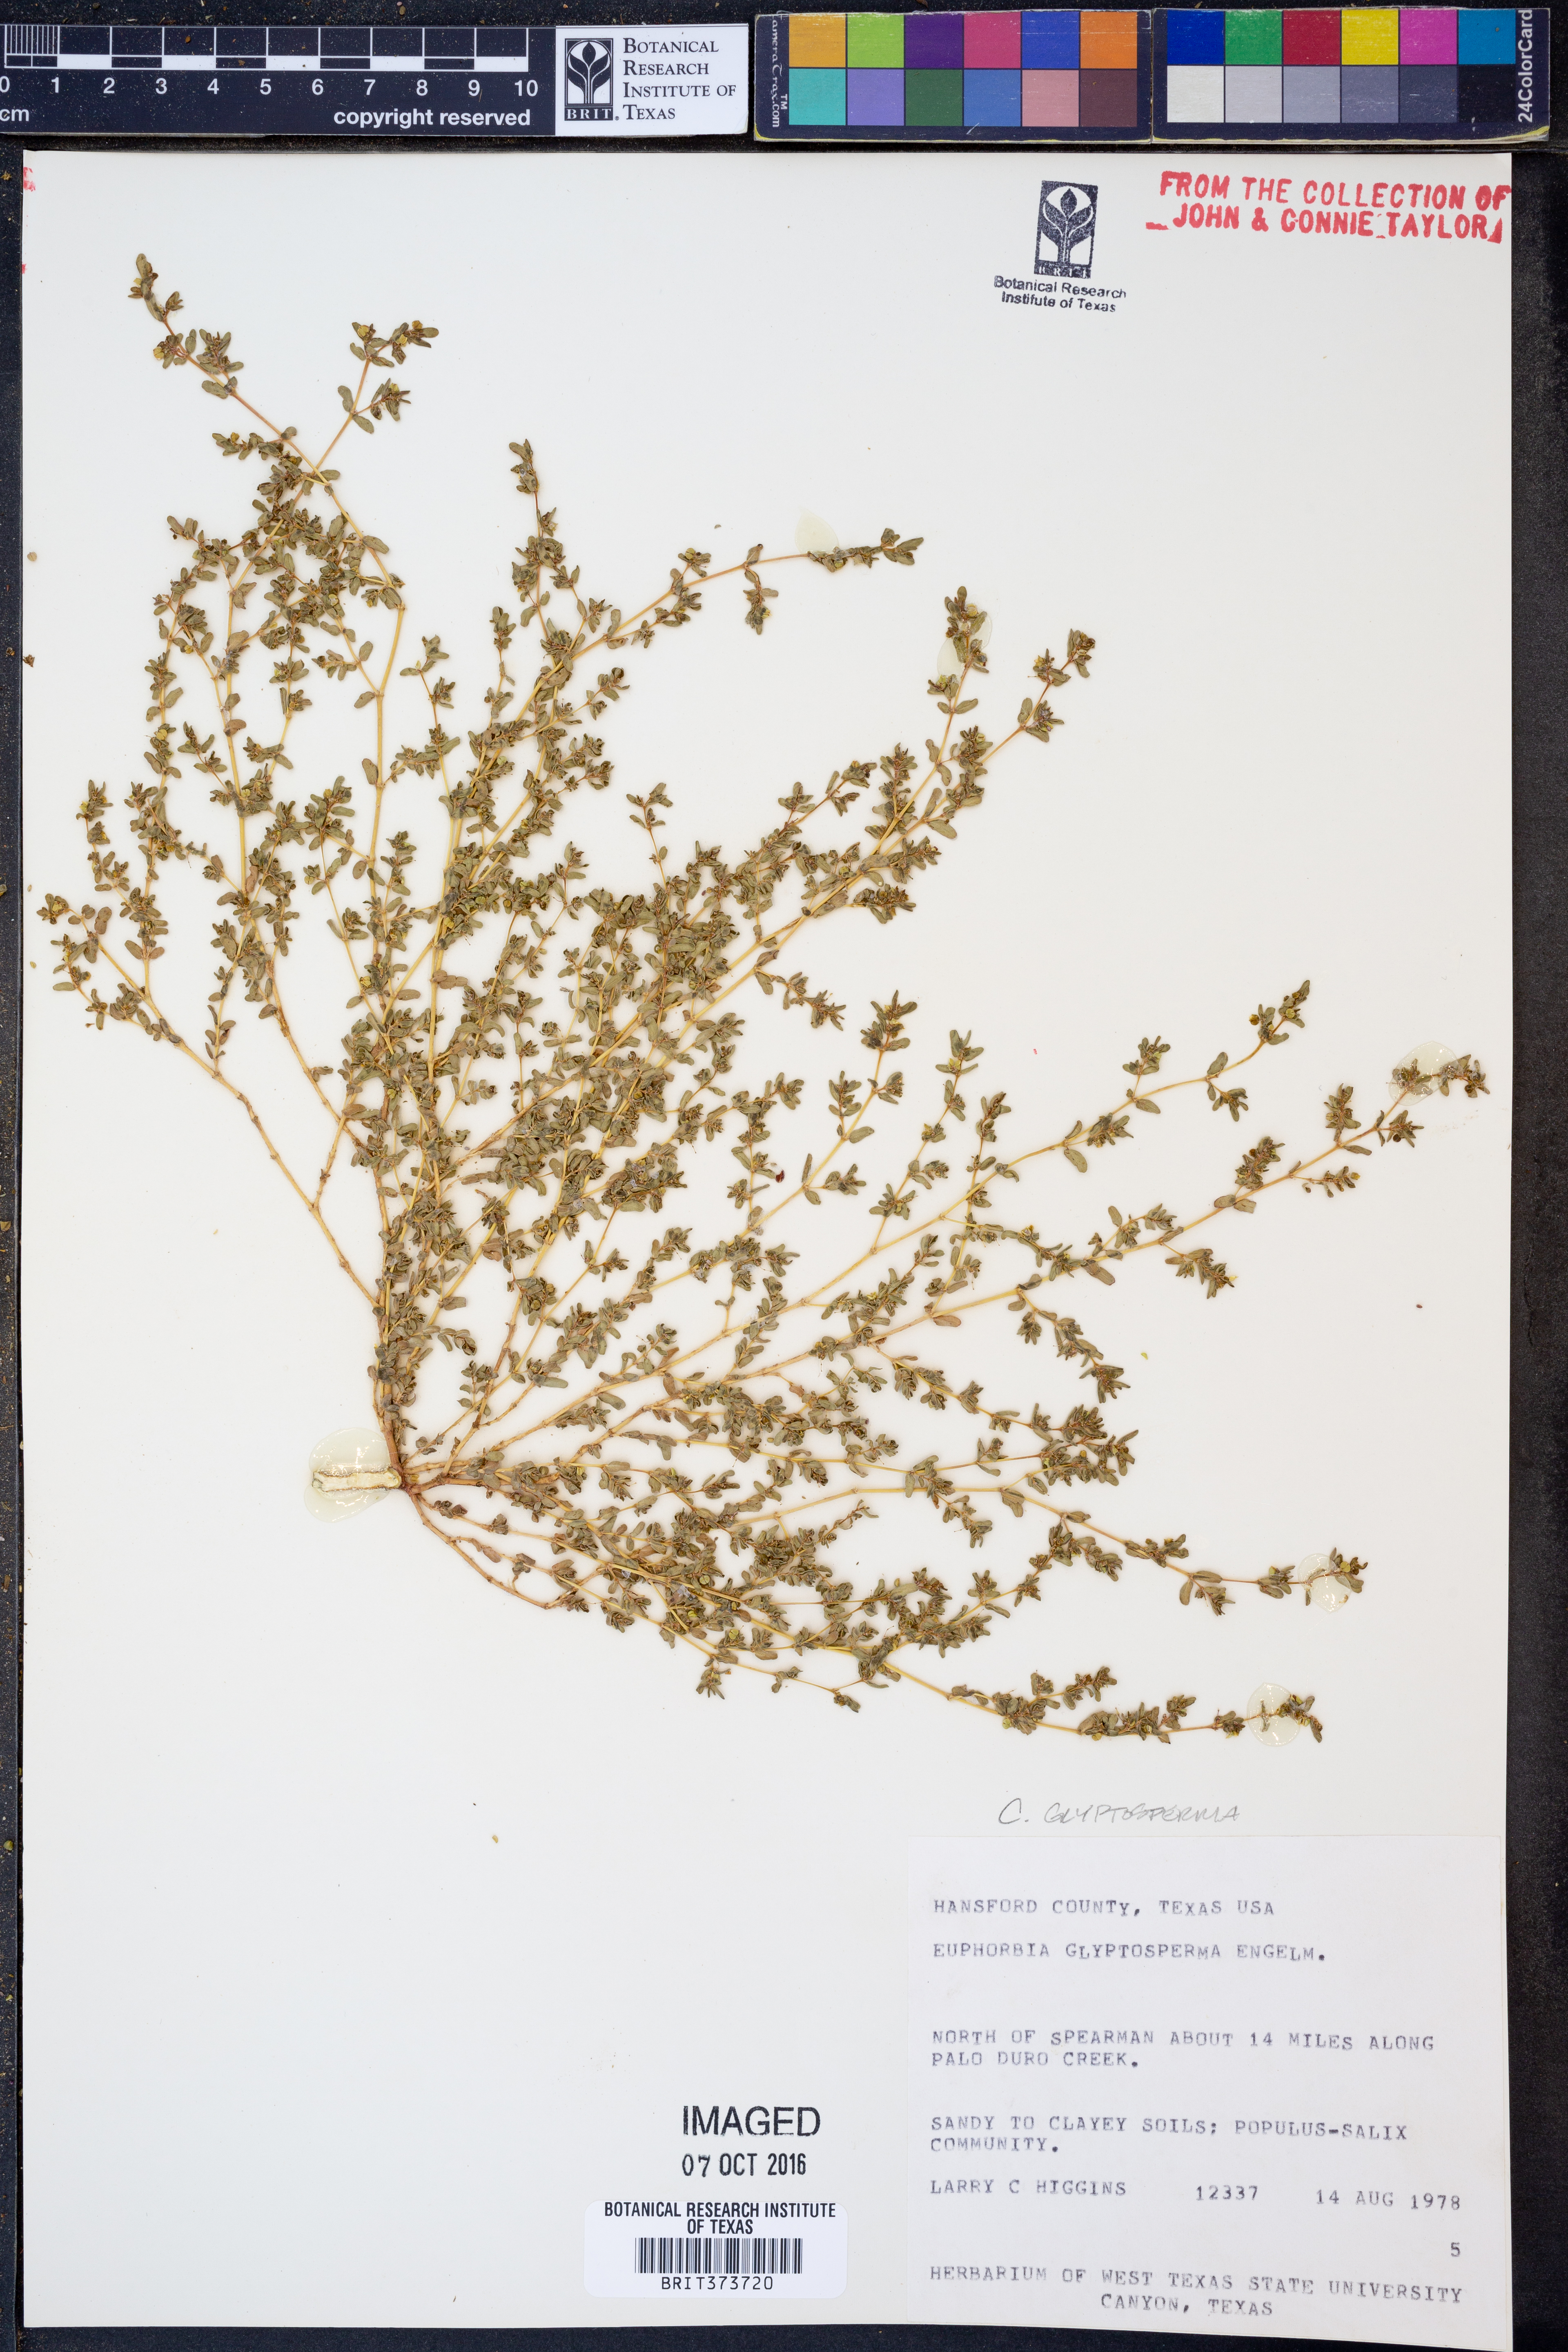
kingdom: Plantae
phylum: Tracheophyta
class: Magnoliopsida
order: Malpighiales
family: Euphorbiaceae
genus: Euphorbia
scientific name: Euphorbia glyptosperma
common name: Corrugate-seeded spurge
